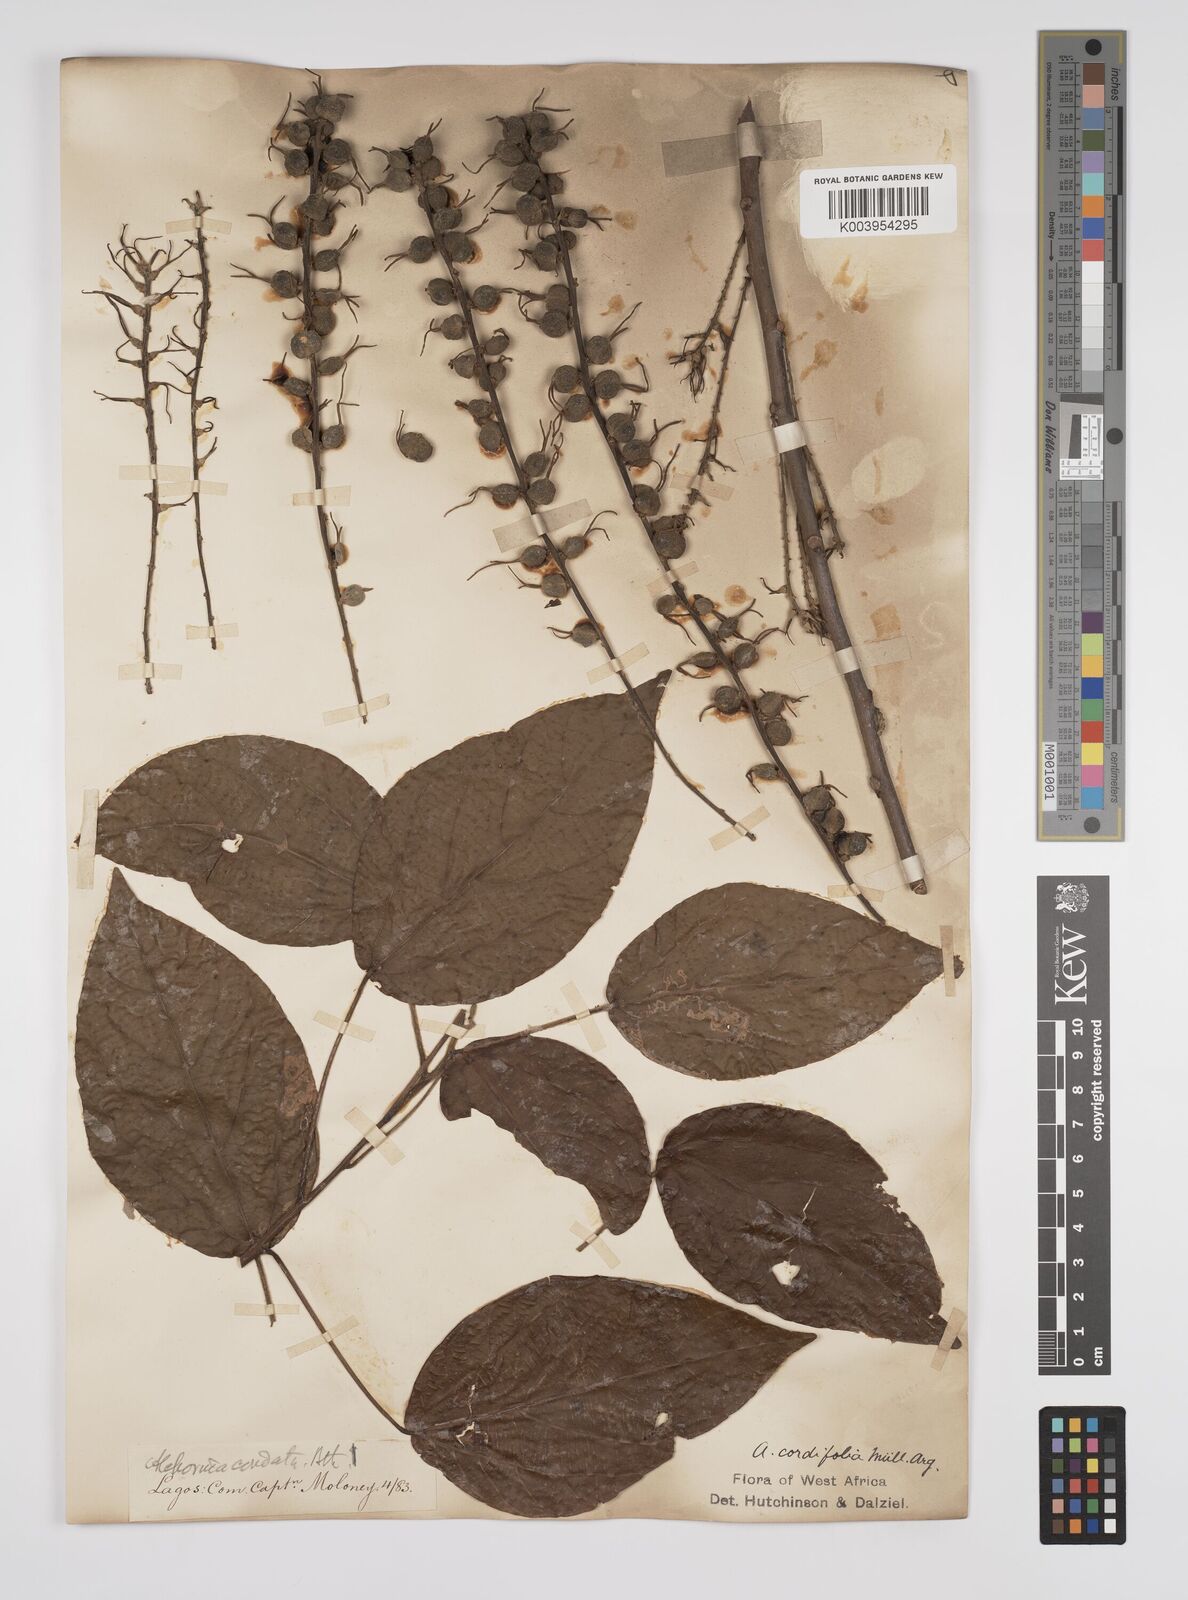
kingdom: Plantae
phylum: Tracheophyta
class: Magnoliopsida
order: Malpighiales
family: Euphorbiaceae
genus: Alchornea
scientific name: Alchornea cordifolia
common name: Christmasbush
